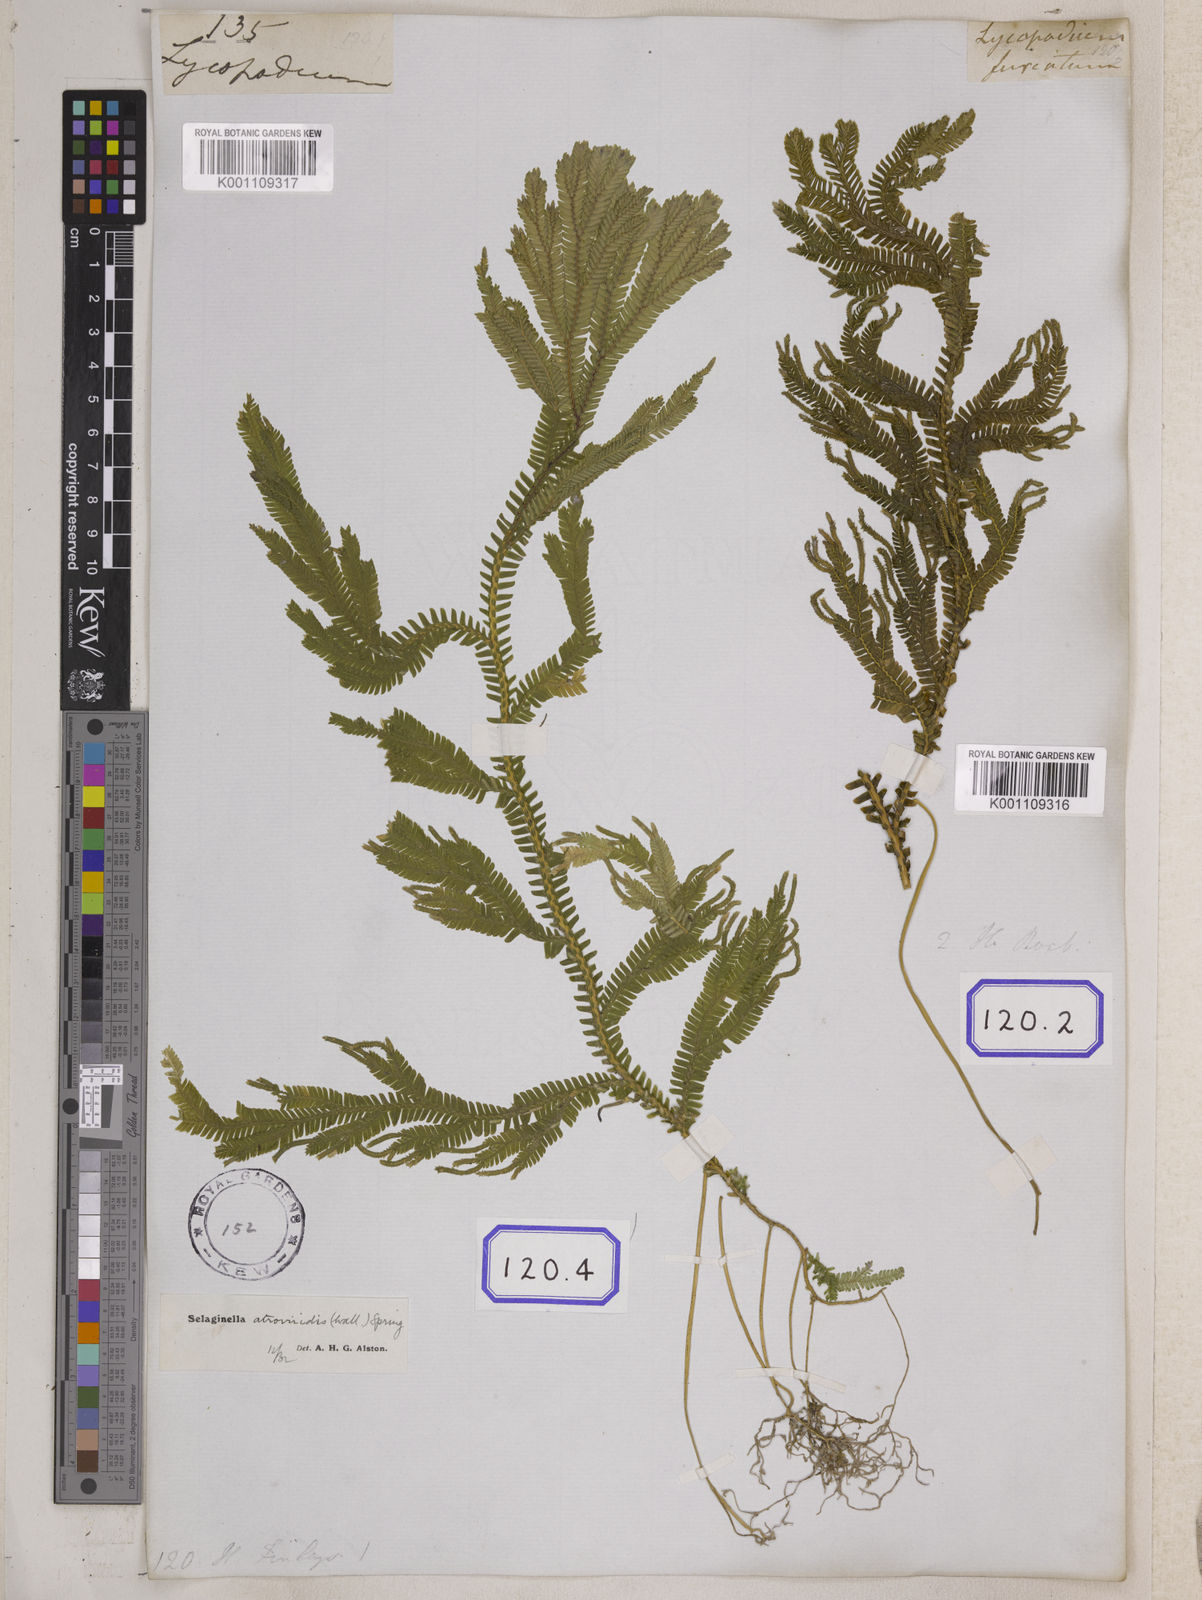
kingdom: Plantae
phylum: Tracheophyta
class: Lycopodiopsida
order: Selaginellales
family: Selaginellaceae
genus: Selaginella
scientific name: Selaginella intermedia
